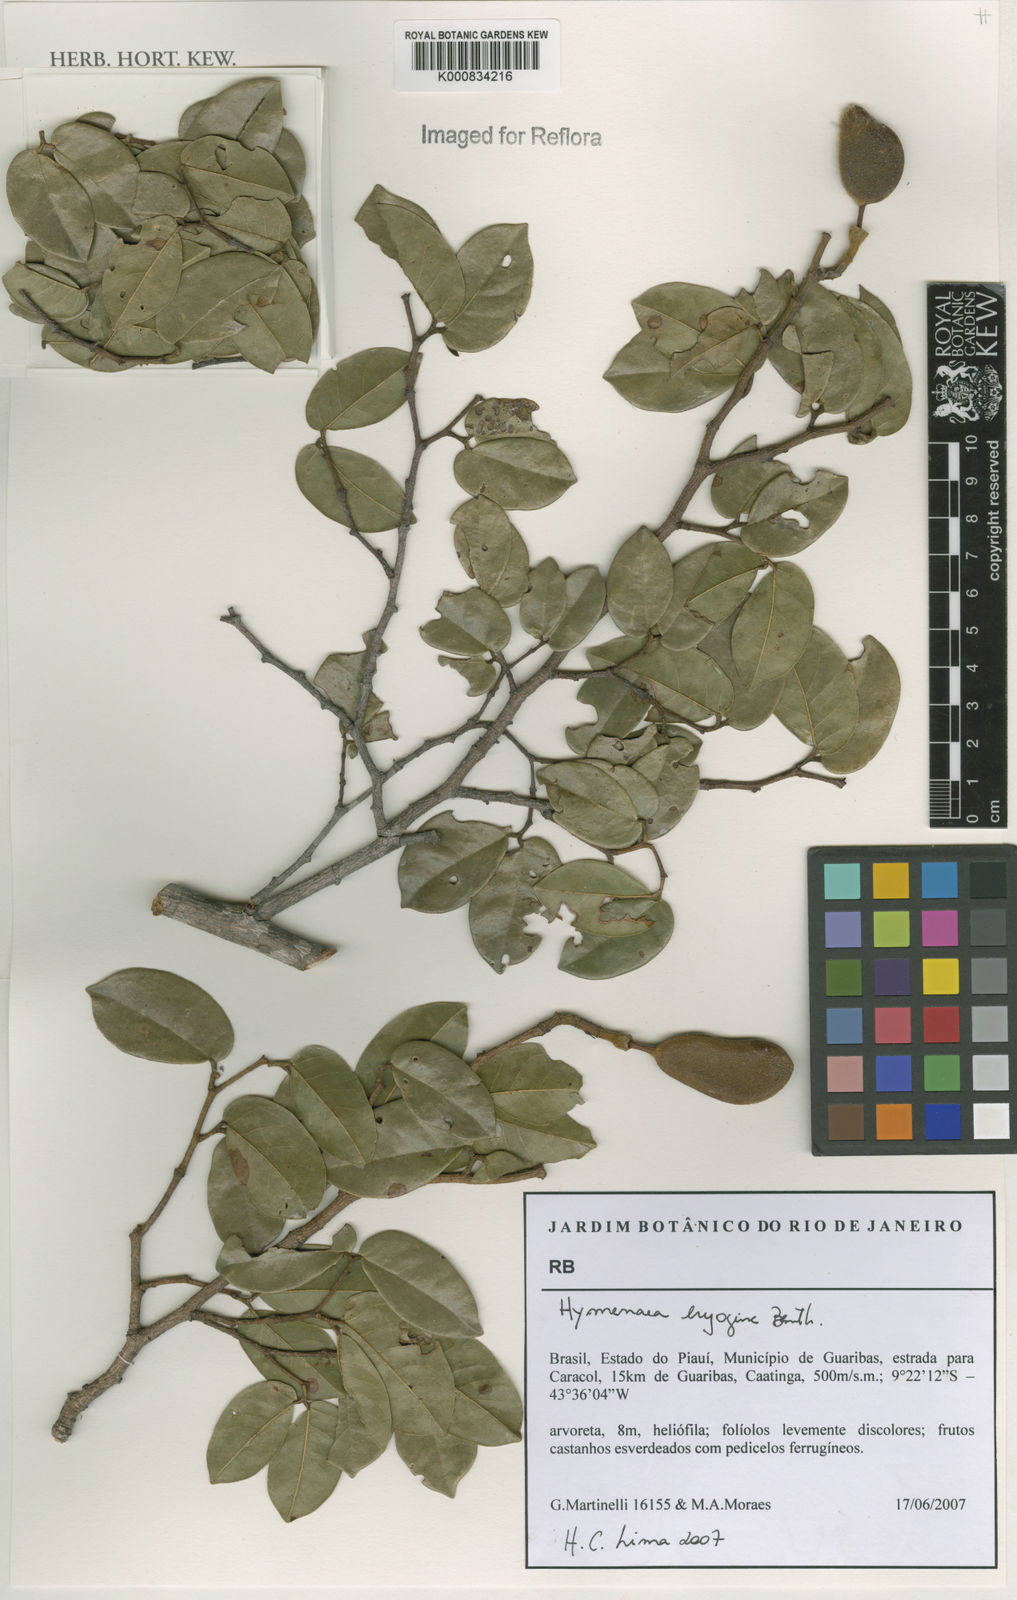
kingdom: Plantae
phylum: Tracheophyta
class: Magnoliopsida
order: Fabales
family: Fabaceae
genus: Hymenaea
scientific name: Hymenaea eriogyne
